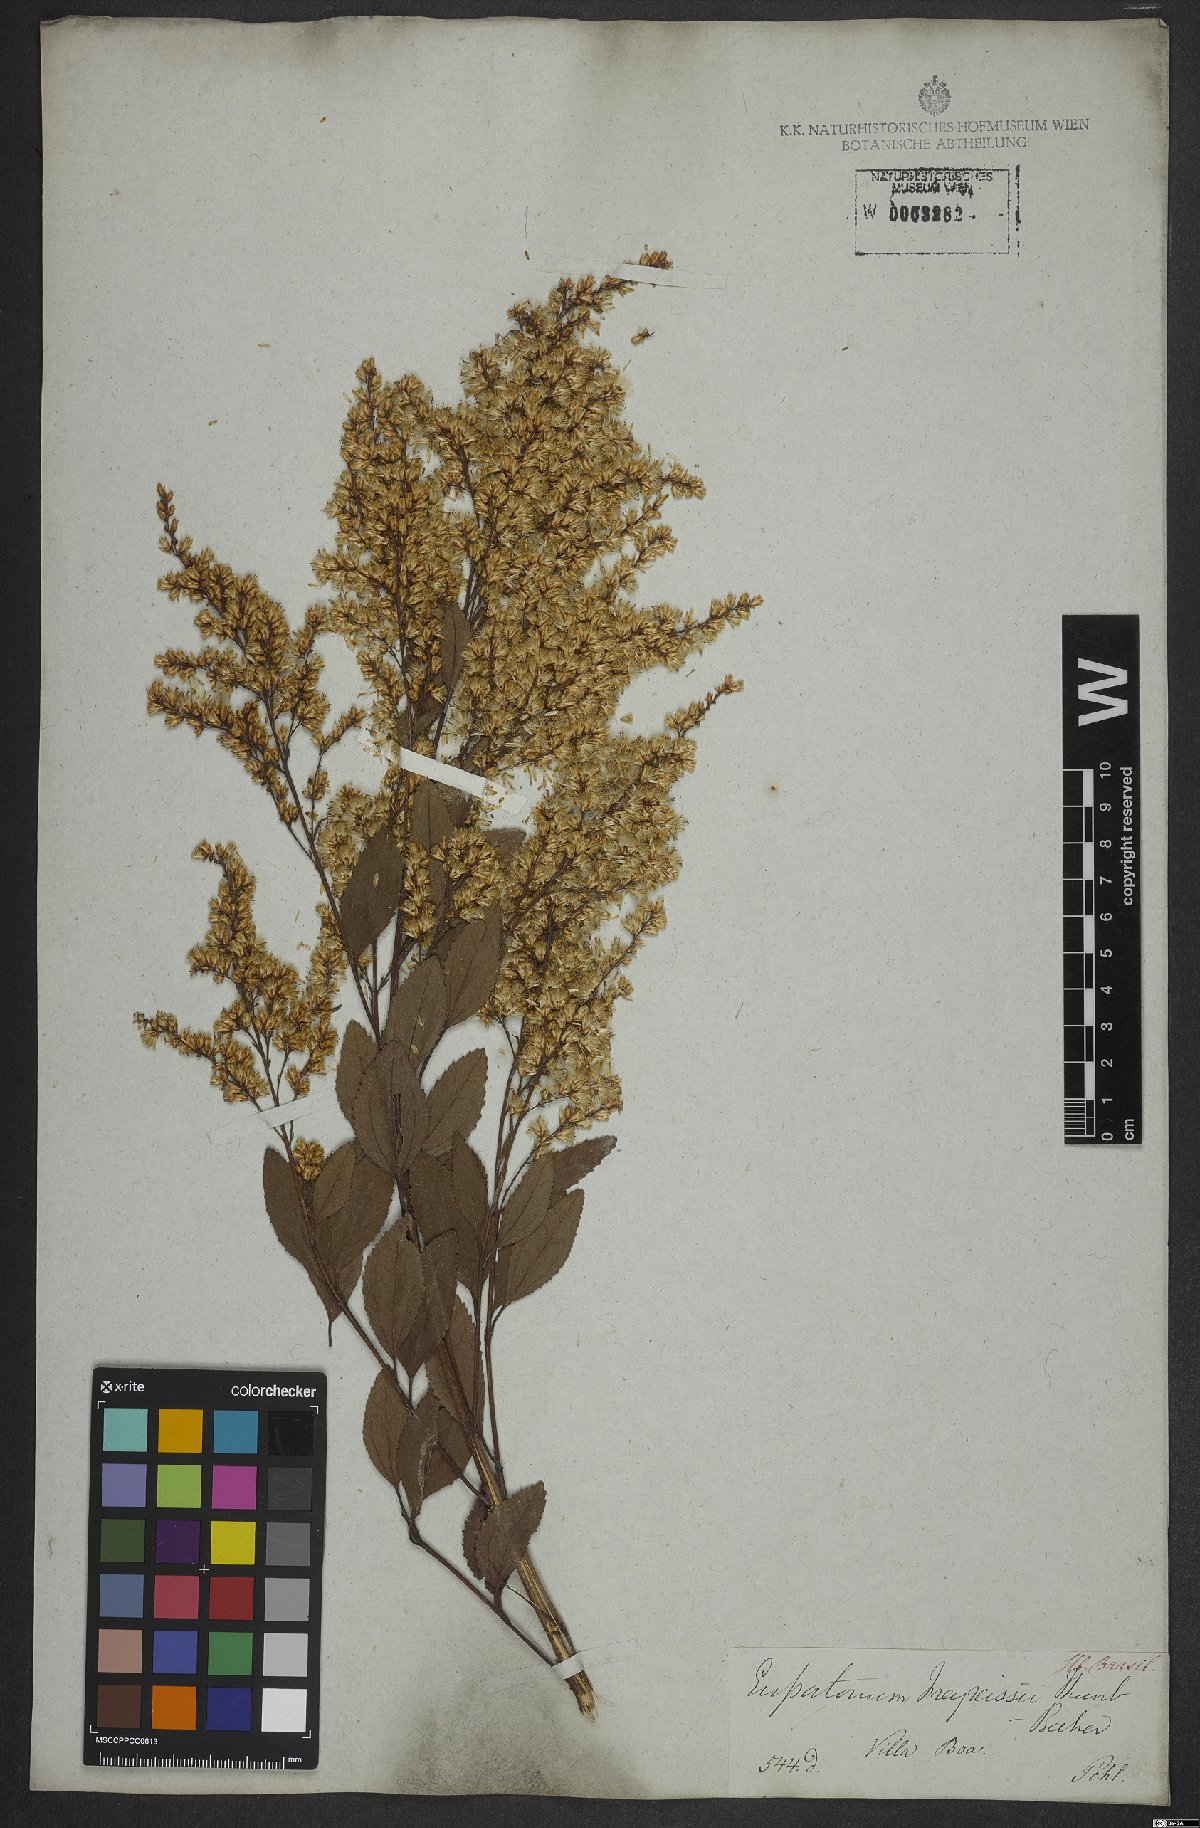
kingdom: Plantae
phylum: Tracheophyta
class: Magnoliopsida
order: Asterales
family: Asteraceae
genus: Ophryosporus
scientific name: Ophryosporus freyreysi
